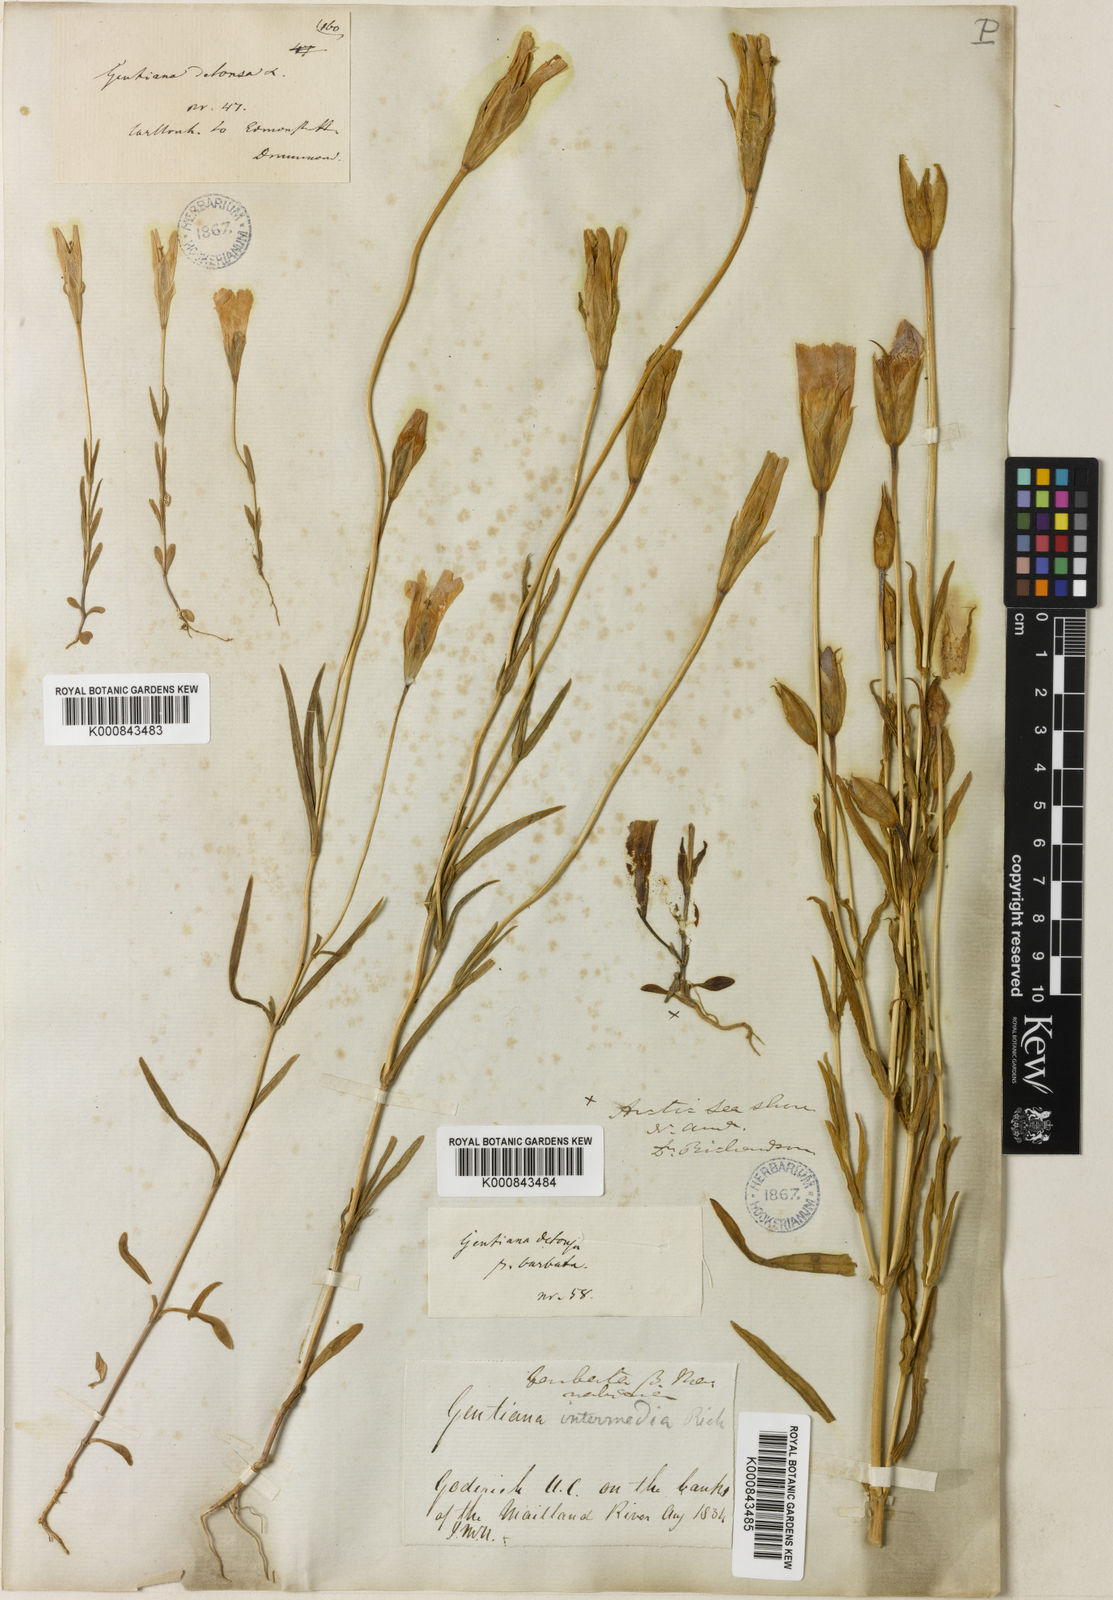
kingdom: Plantae
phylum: Tracheophyta
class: Magnoliopsida
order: Gentianales
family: Gentianaceae
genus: Gentianopsis
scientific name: Gentianopsis crinita
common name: Fringed-gentian
